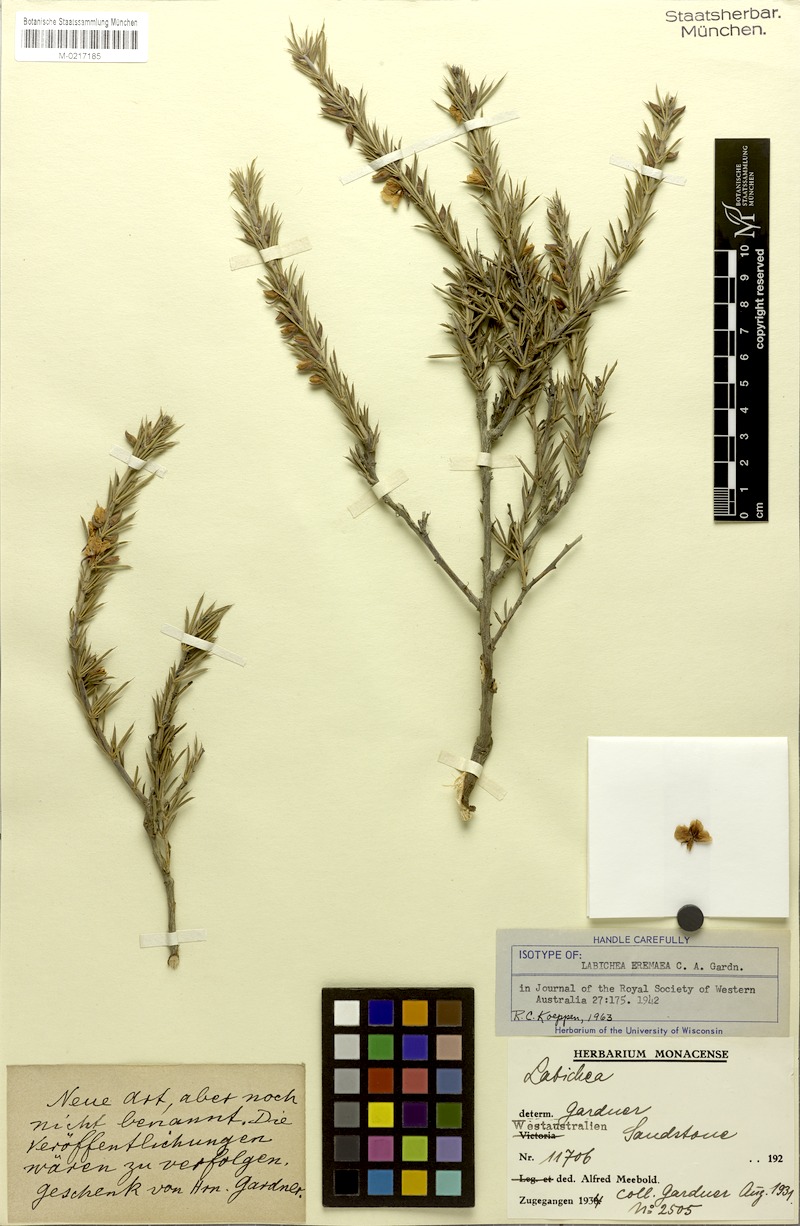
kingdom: Plantae
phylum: Tracheophyta
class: Magnoliopsida
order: Fabales
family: Fabaceae
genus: Labichea
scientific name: Labichea eremaea
